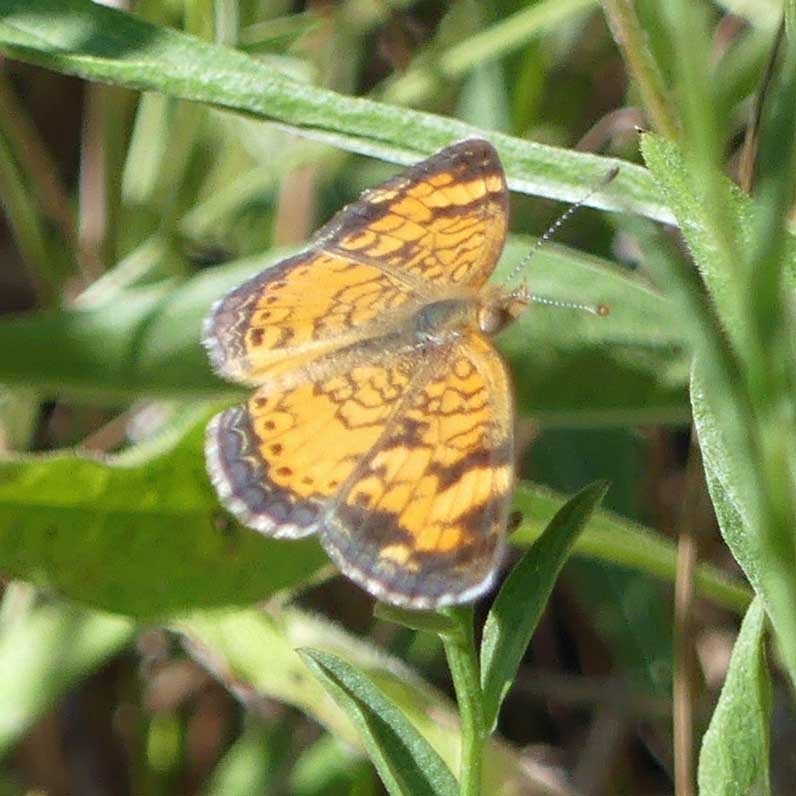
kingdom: Animalia
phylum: Arthropoda
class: Insecta
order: Lepidoptera
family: Nymphalidae
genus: Phyciodes
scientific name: Phyciodes tharos
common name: Northern Crescent
